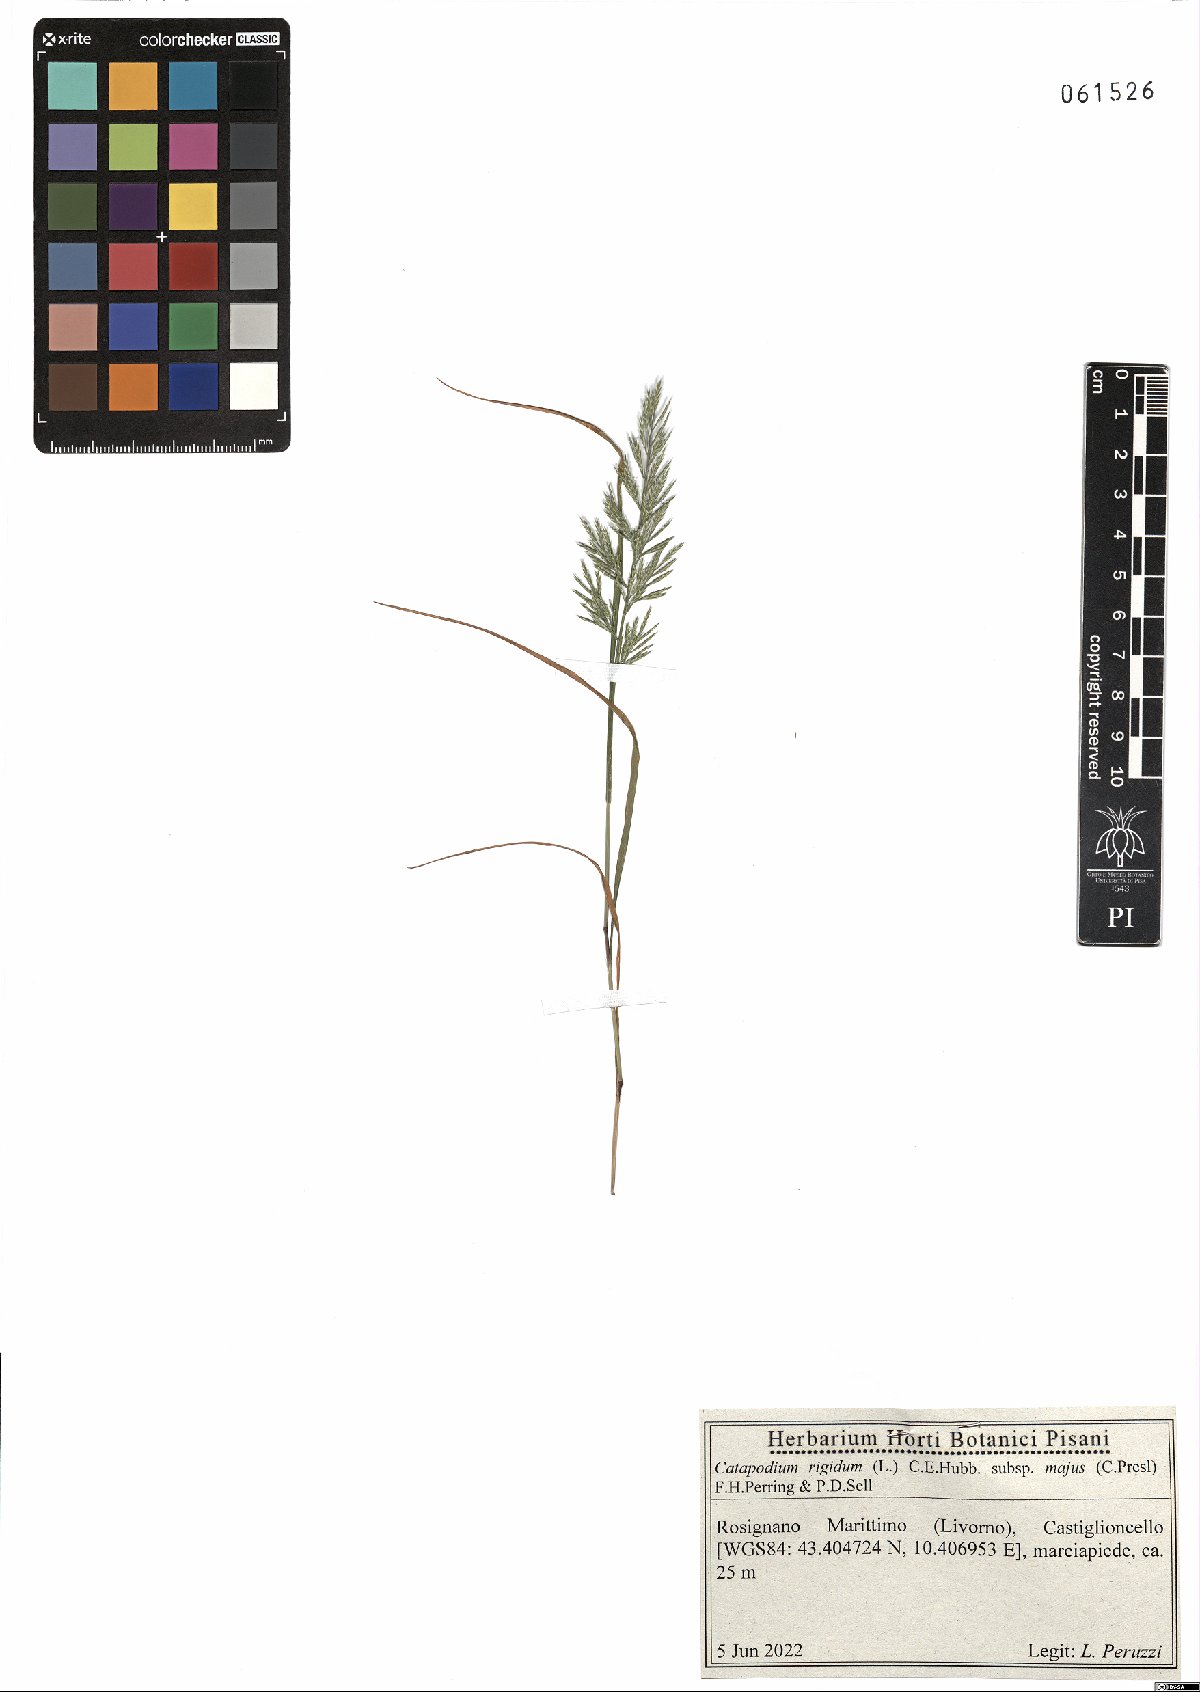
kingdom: Plantae
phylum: Tracheophyta
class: Liliopsida
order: Poales
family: Poaceae
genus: Catapodium
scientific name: Catapodium rigidum
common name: Fern-grass
